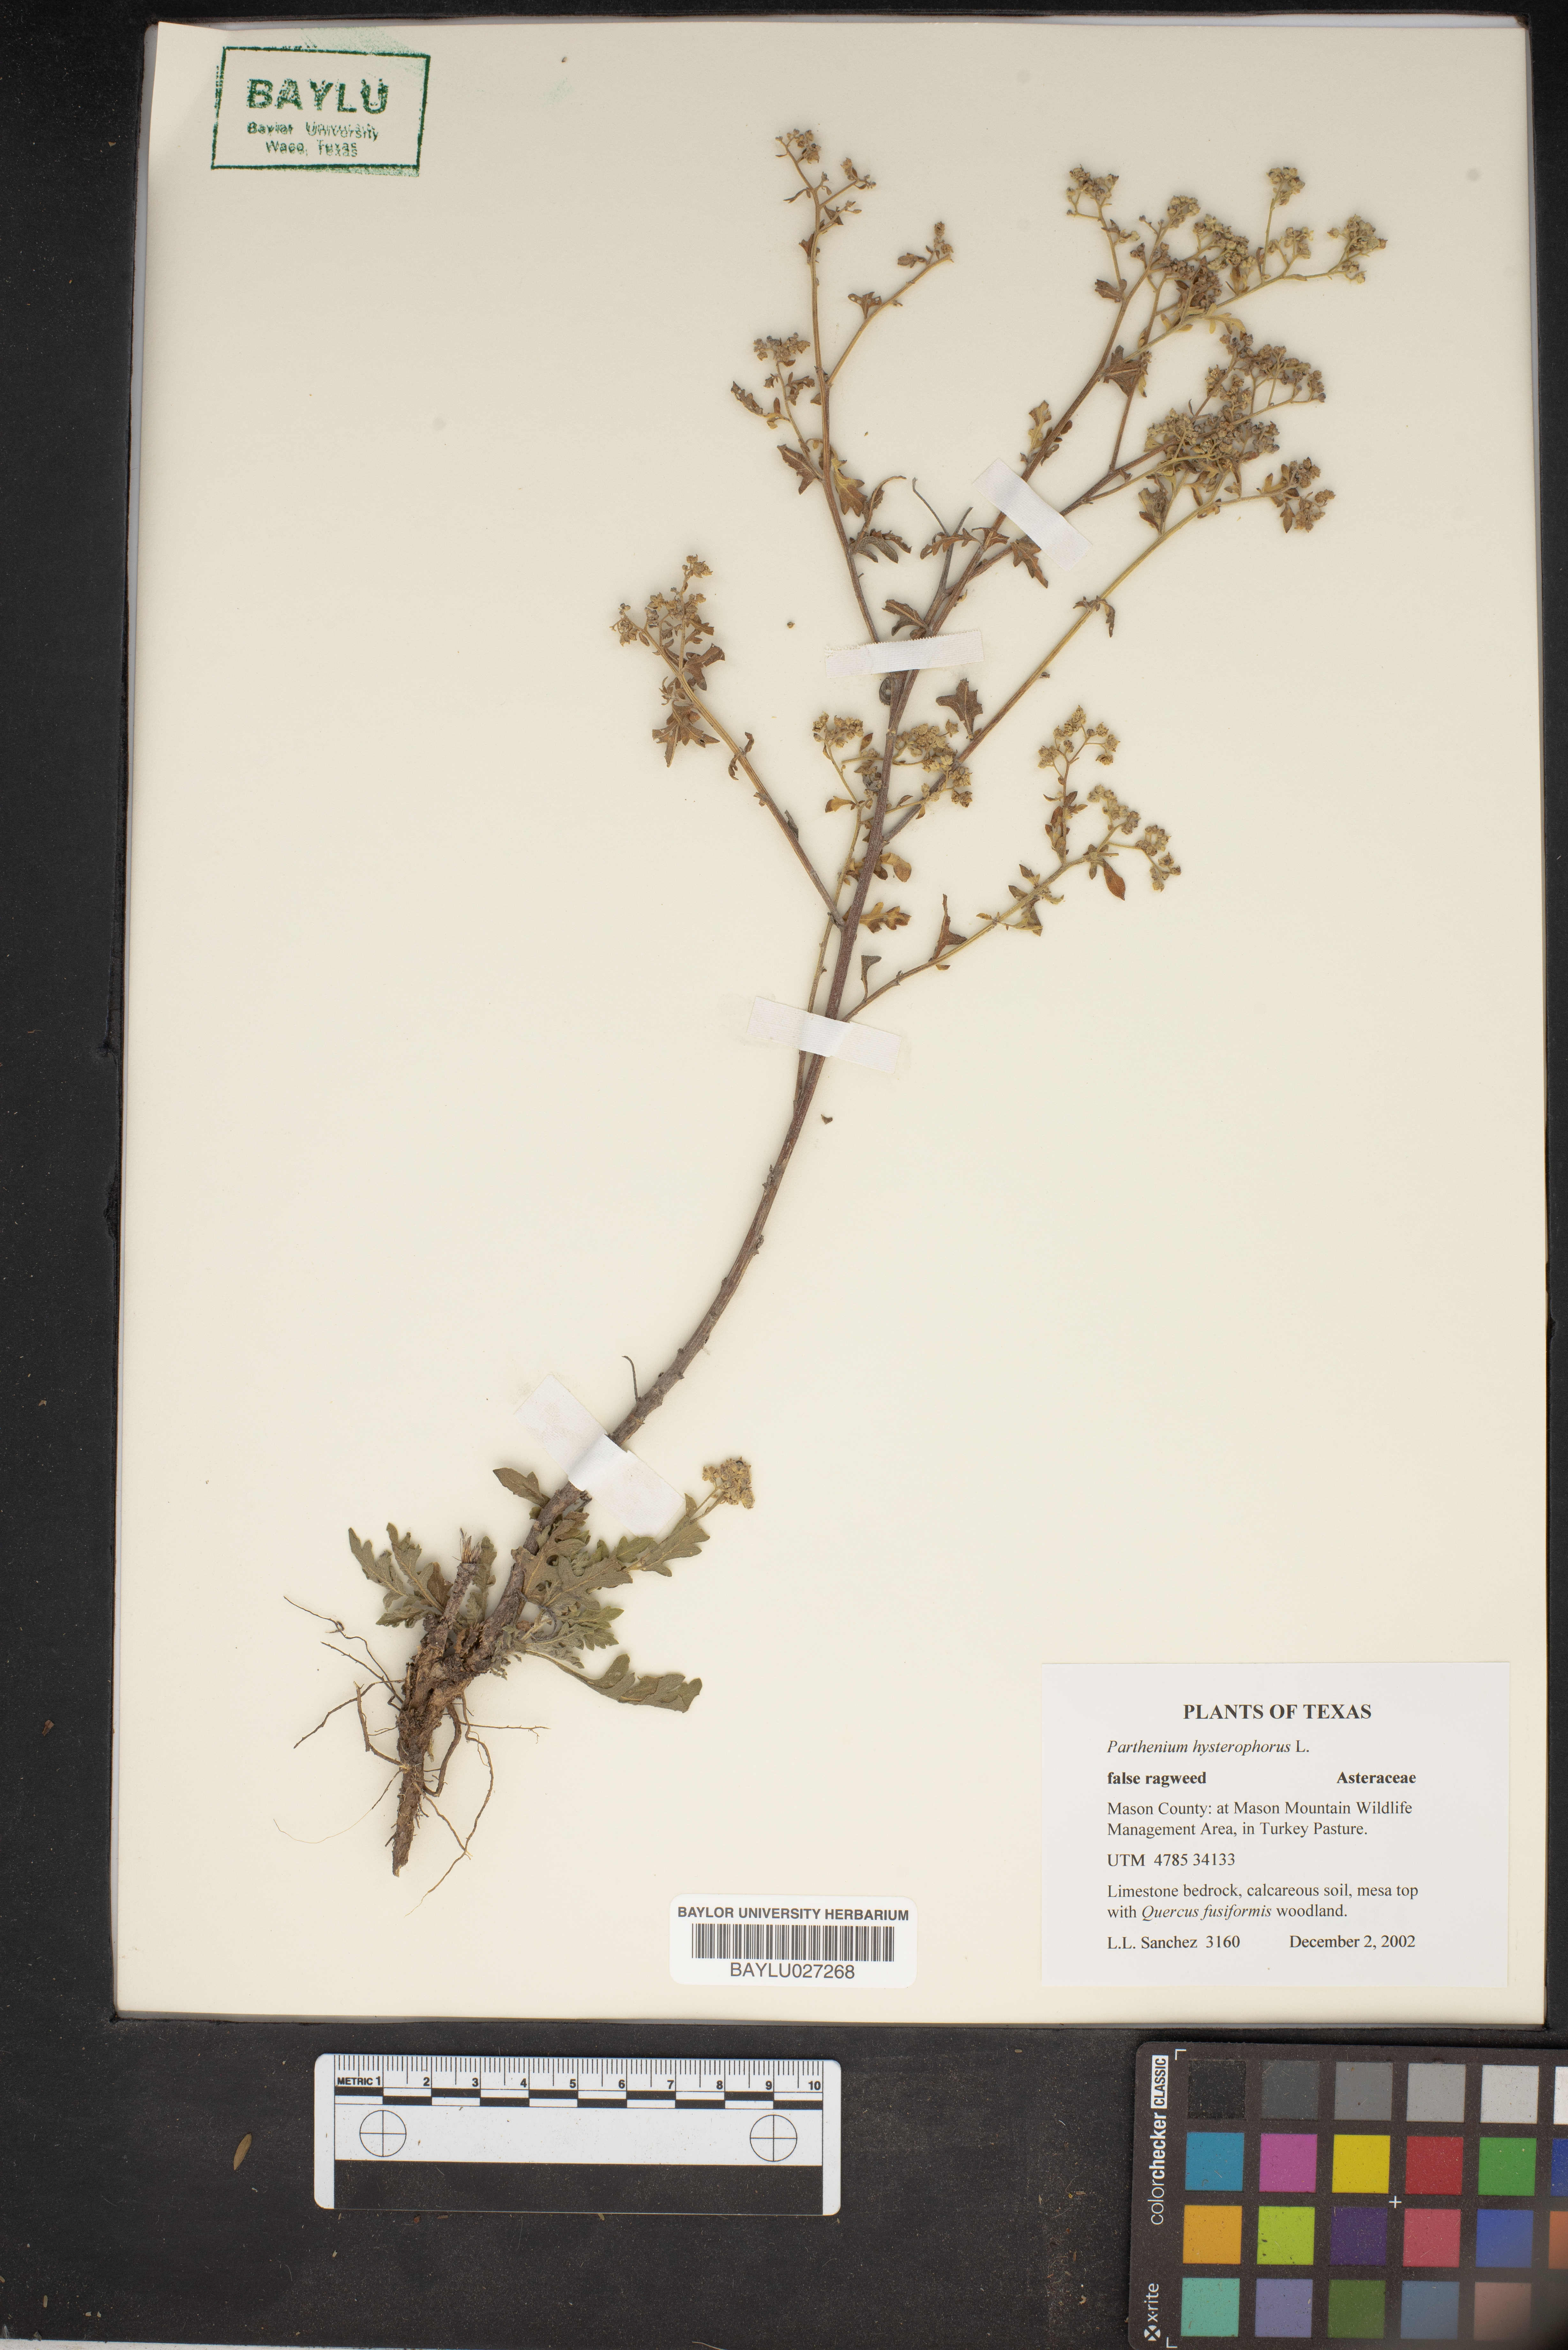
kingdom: Plantae
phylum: Tracheophyta
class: Magnoliopsida
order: Asterales
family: Asteraceae
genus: Parthenium
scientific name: Parthenium hysterophorus
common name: Santa maria feverfew
